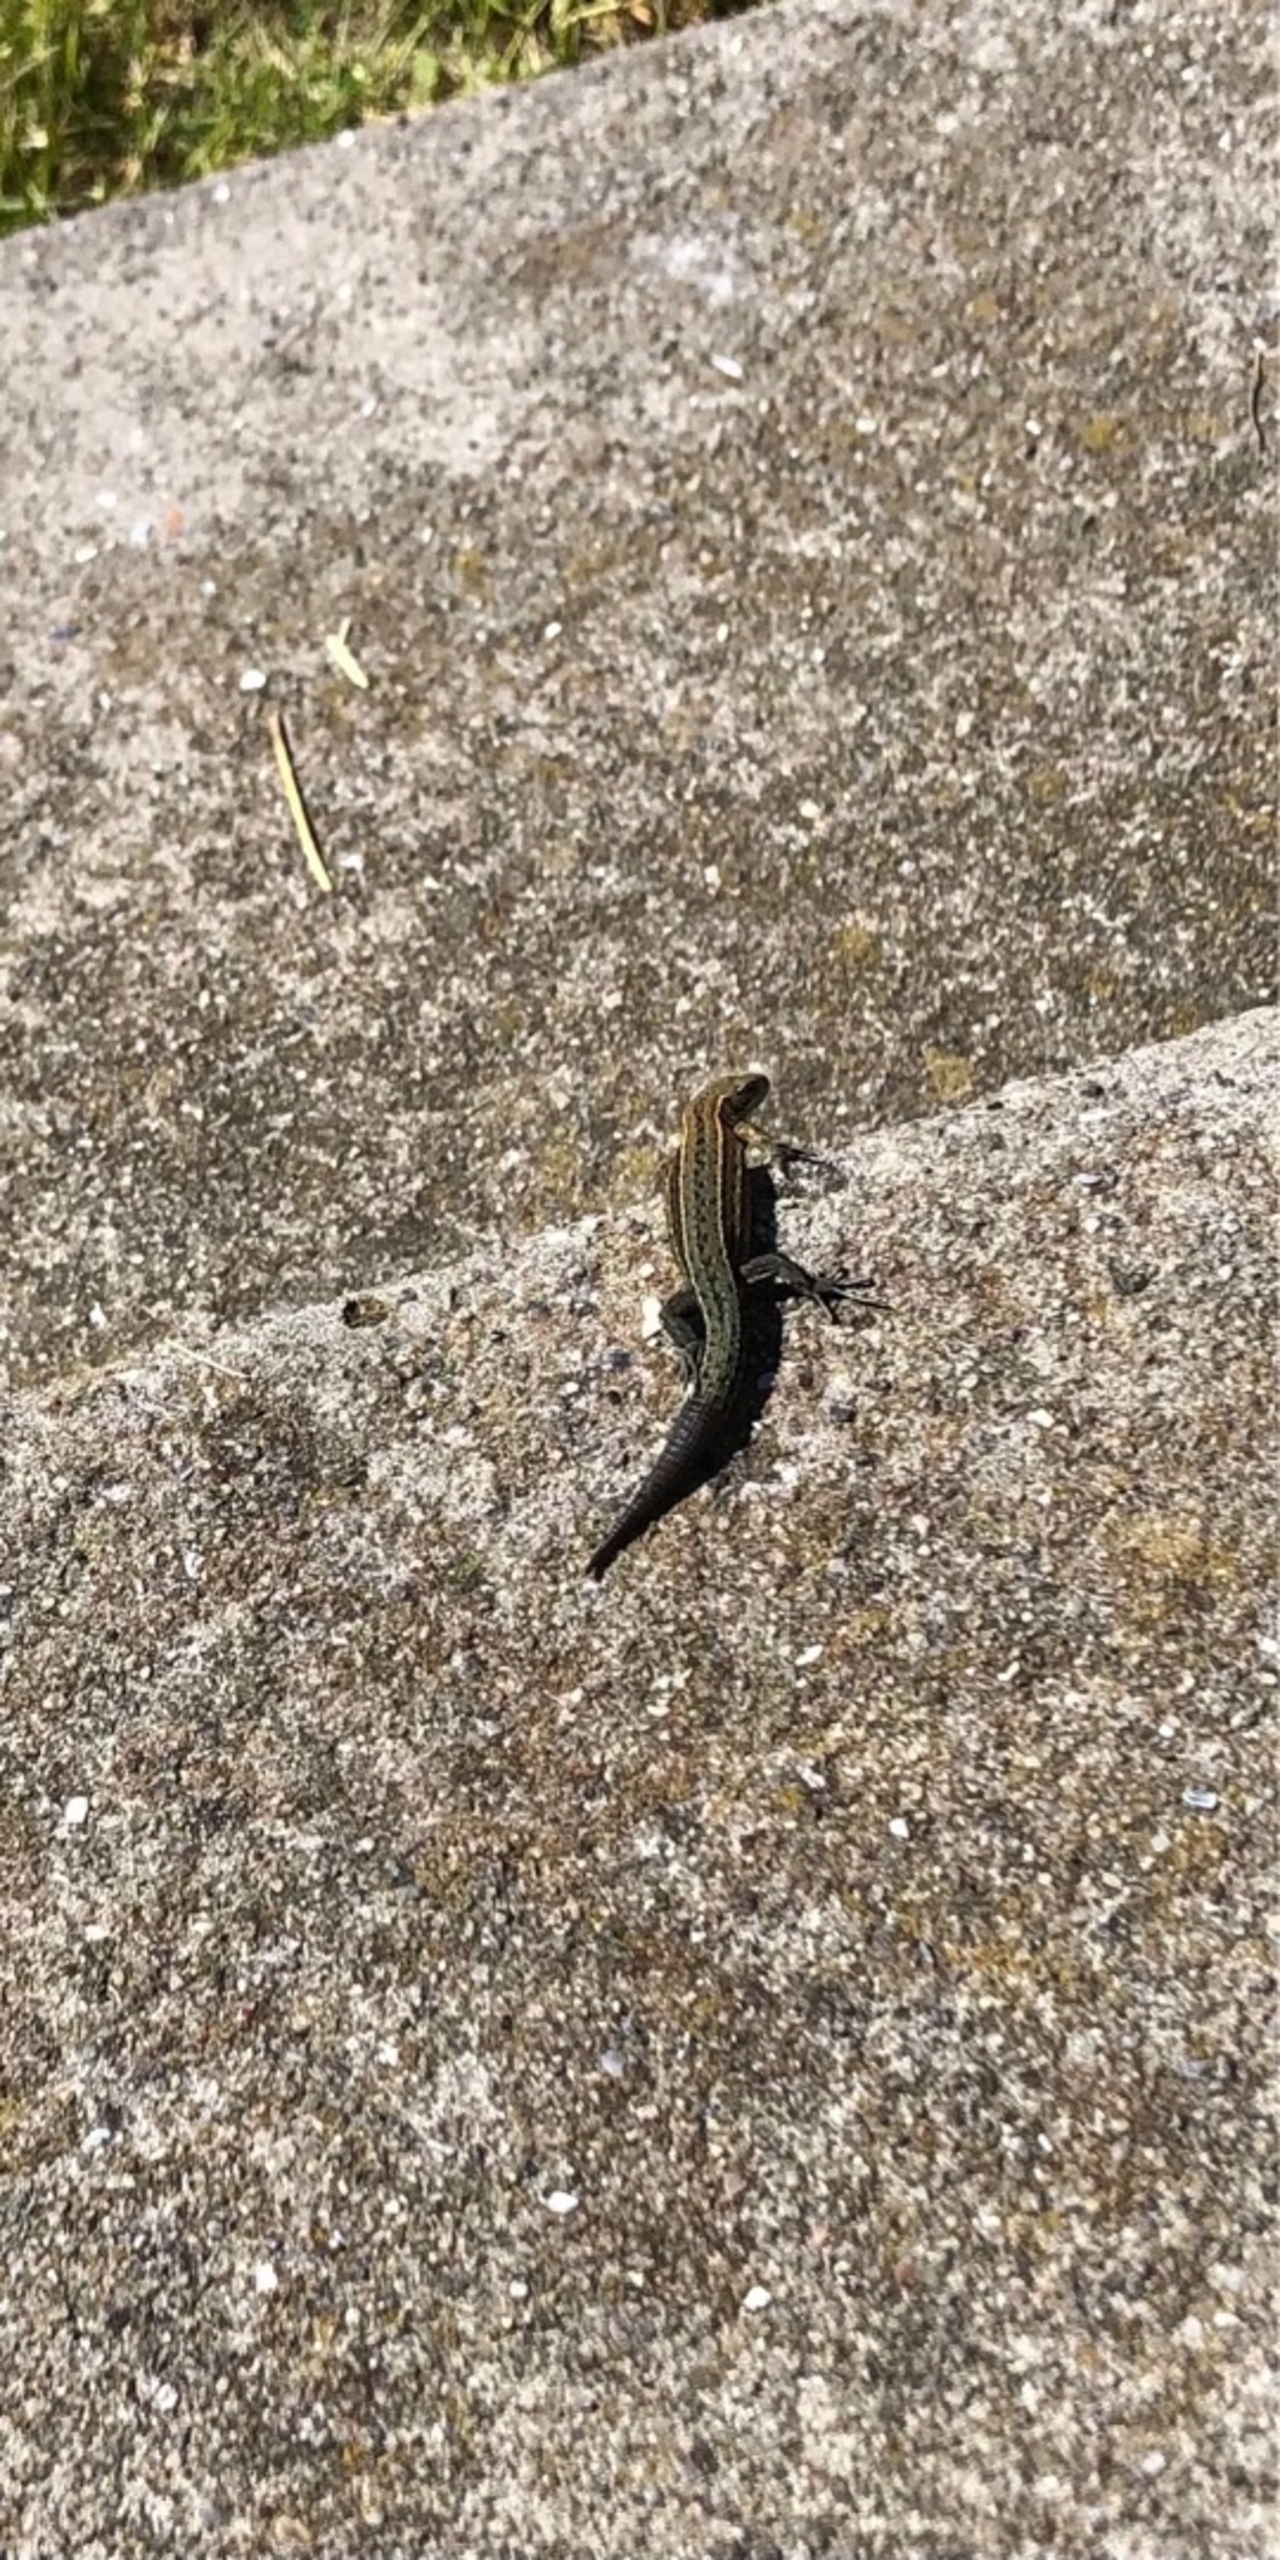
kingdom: Animalia
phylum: Chordata
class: Squamata
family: Lacertidae
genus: Zootoca
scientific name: Zootoca vivipara
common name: Skovfirben
